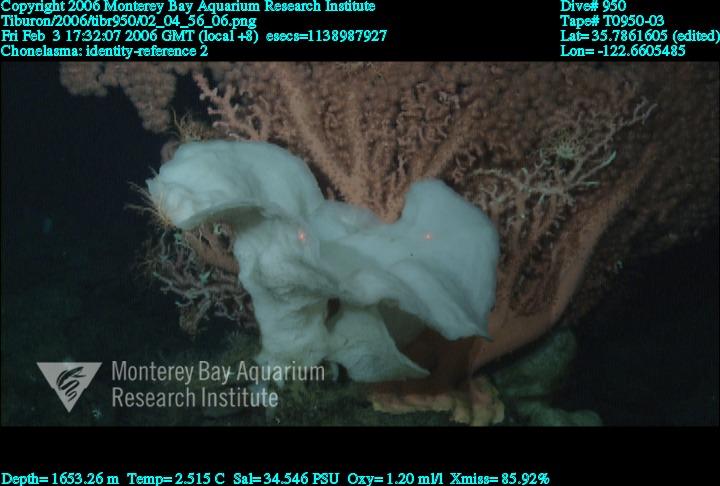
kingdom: Animalia
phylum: Porifera
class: Hexactinellida
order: Sceptrulophora
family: Euretidae
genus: Chonelasma
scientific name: Chonelasma
